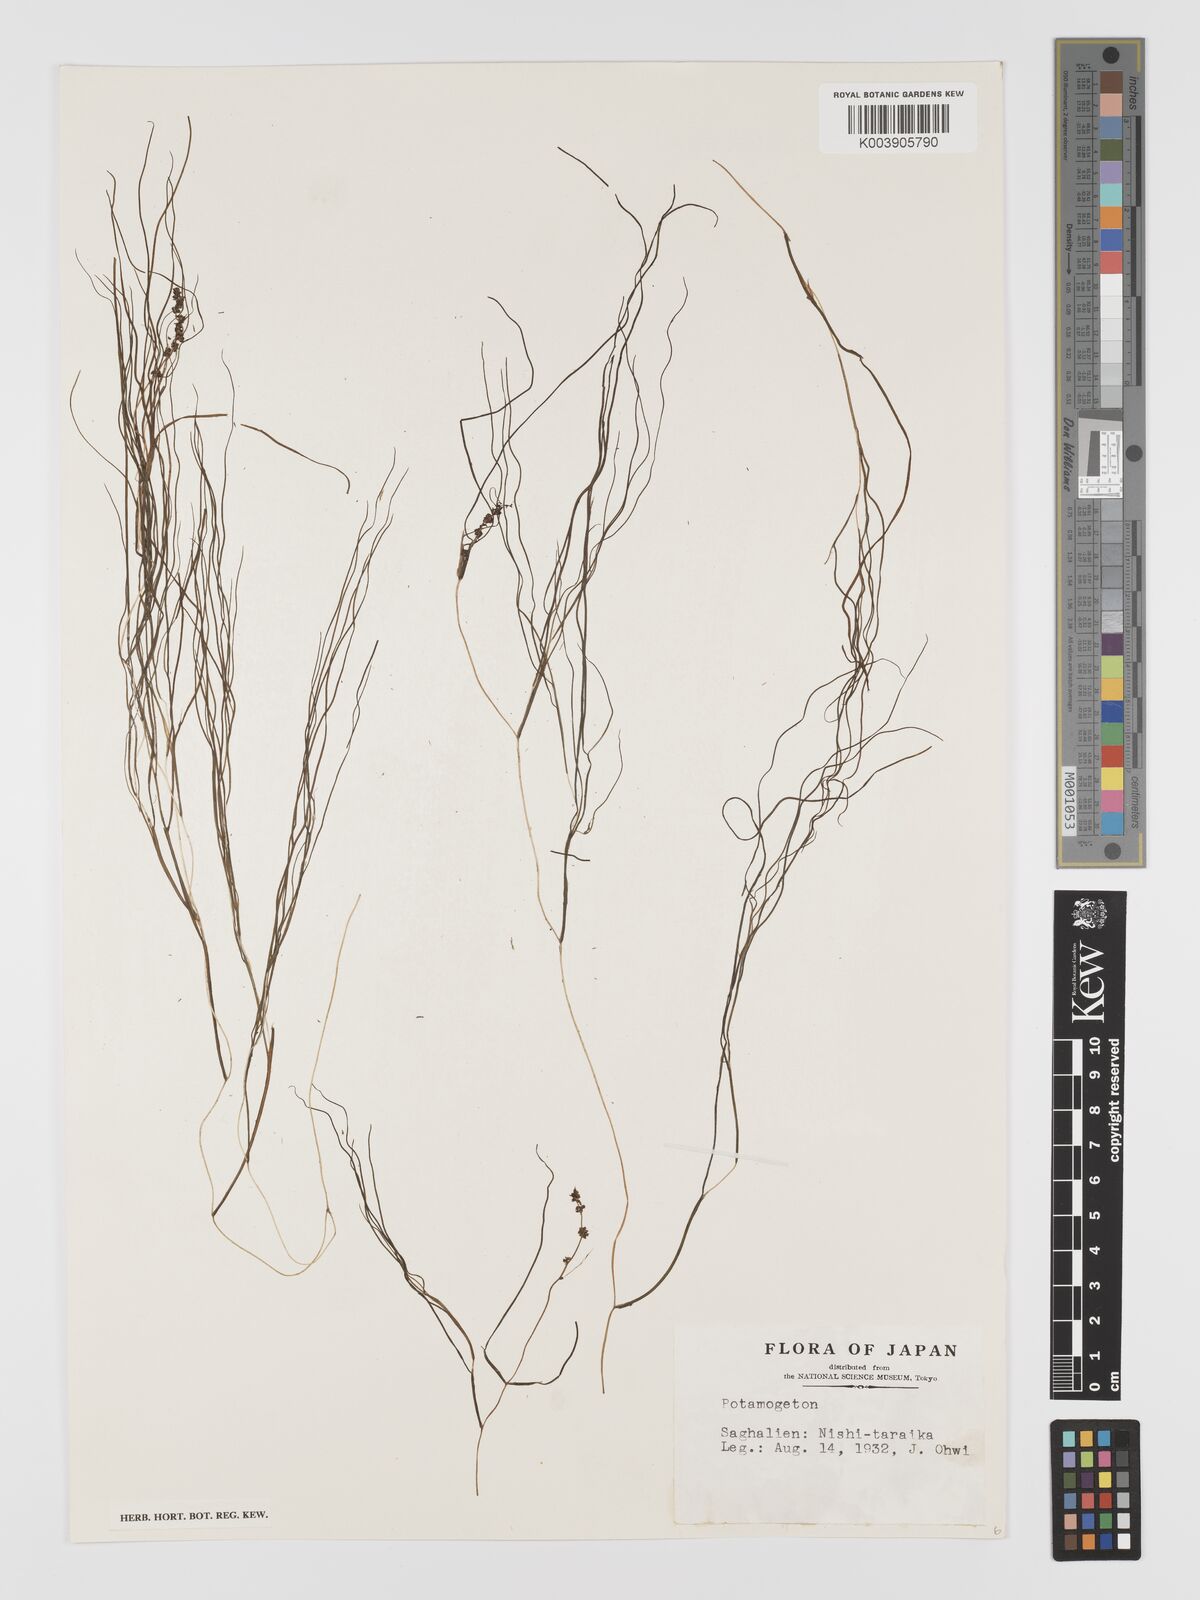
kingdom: Plantae
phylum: Tracheophyta
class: Liliopsida
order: Alismatales
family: Potamogetonaceae
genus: Stuckenia
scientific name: Stuckenia pectinata
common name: Sago pondweed
